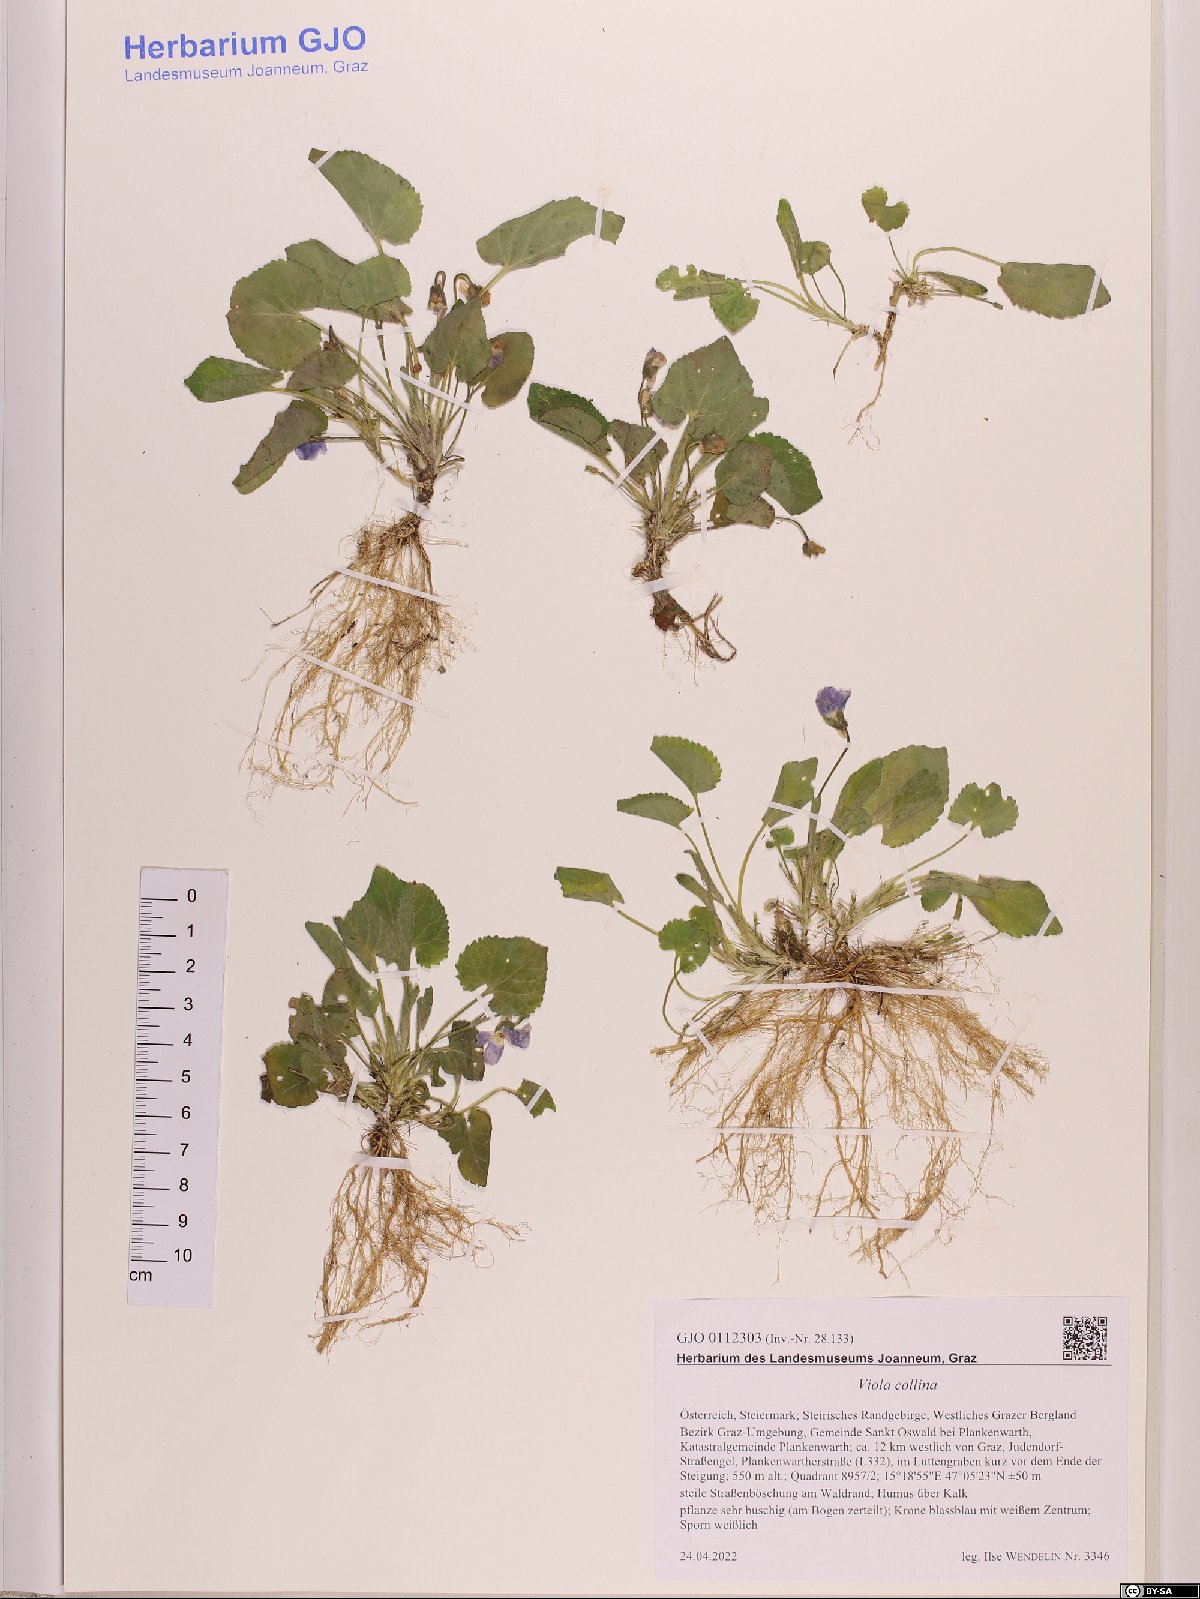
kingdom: Plantae
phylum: Tracheophyta
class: Magnoliopsida
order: Malpighiales
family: Violaceae
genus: Viola
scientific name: Viola collina
